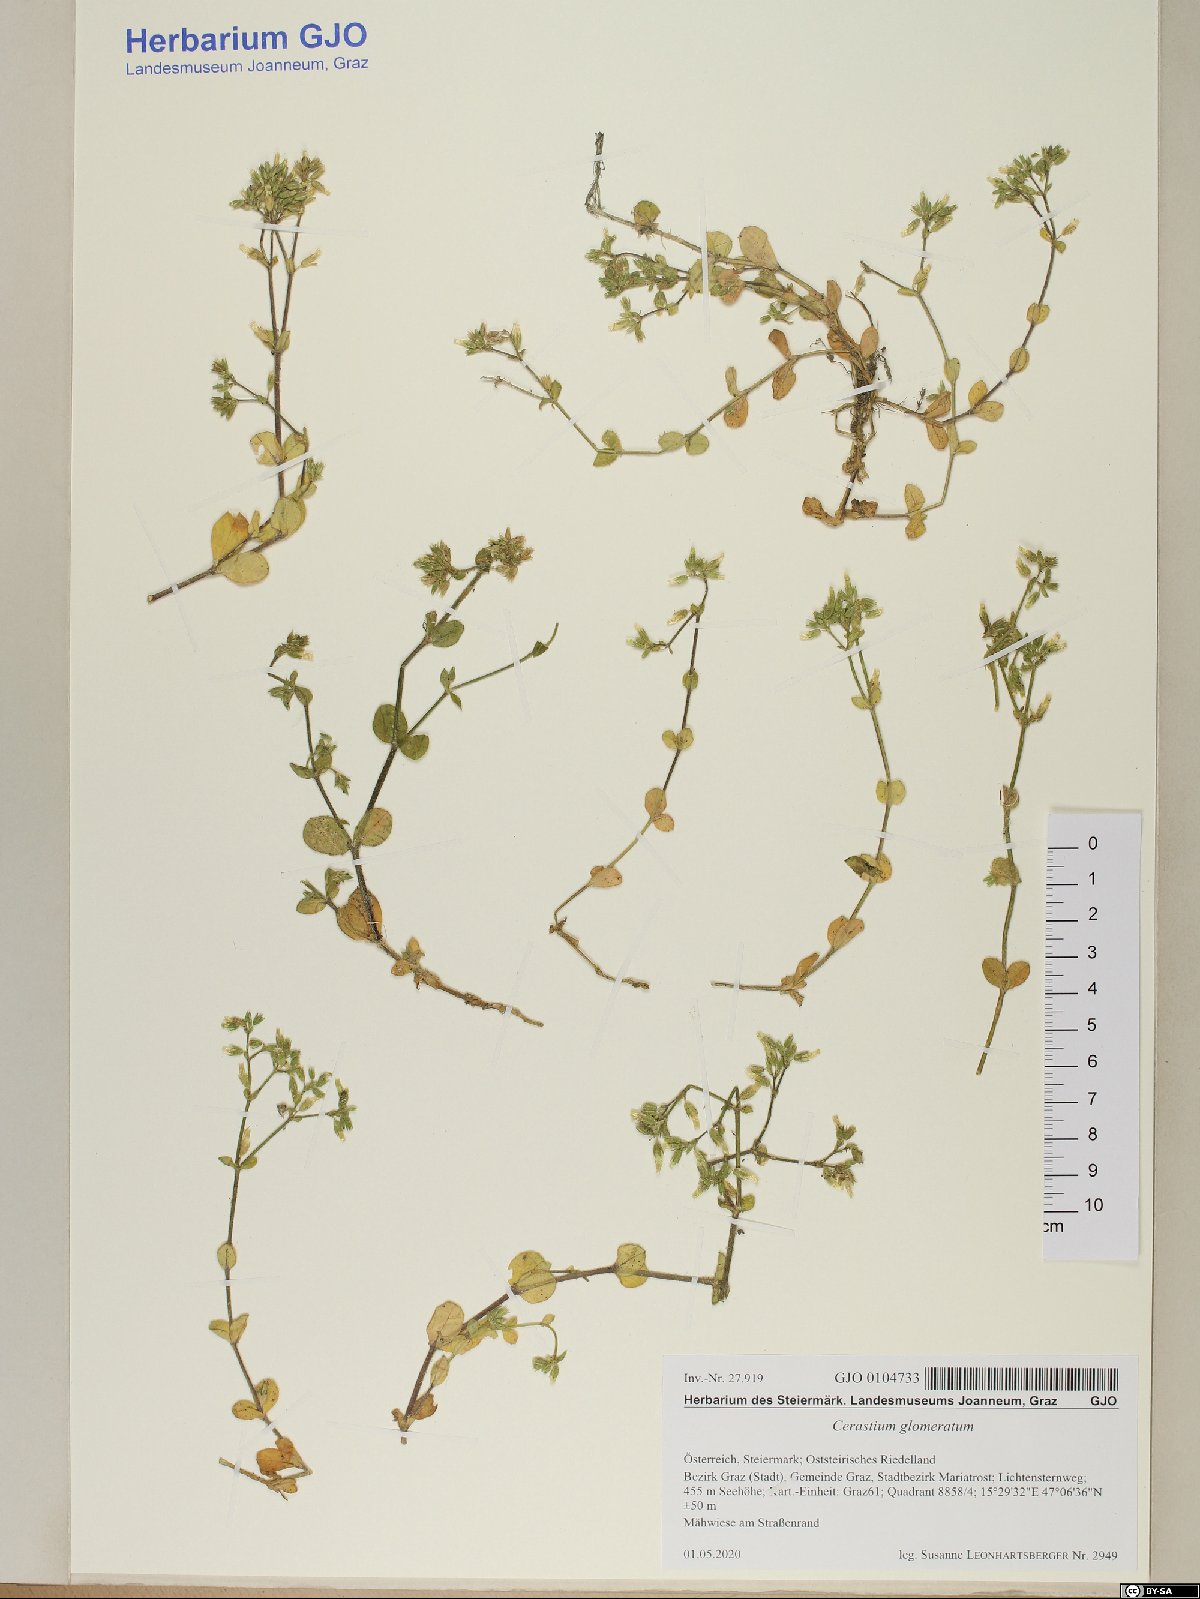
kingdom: Plantae
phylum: Tracheophyta
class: Magnoliopsida
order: Caryophyllales
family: Caryophyllaceae
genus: Cerastium
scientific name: Cerastium glomeratum
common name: Sticky chickweed
